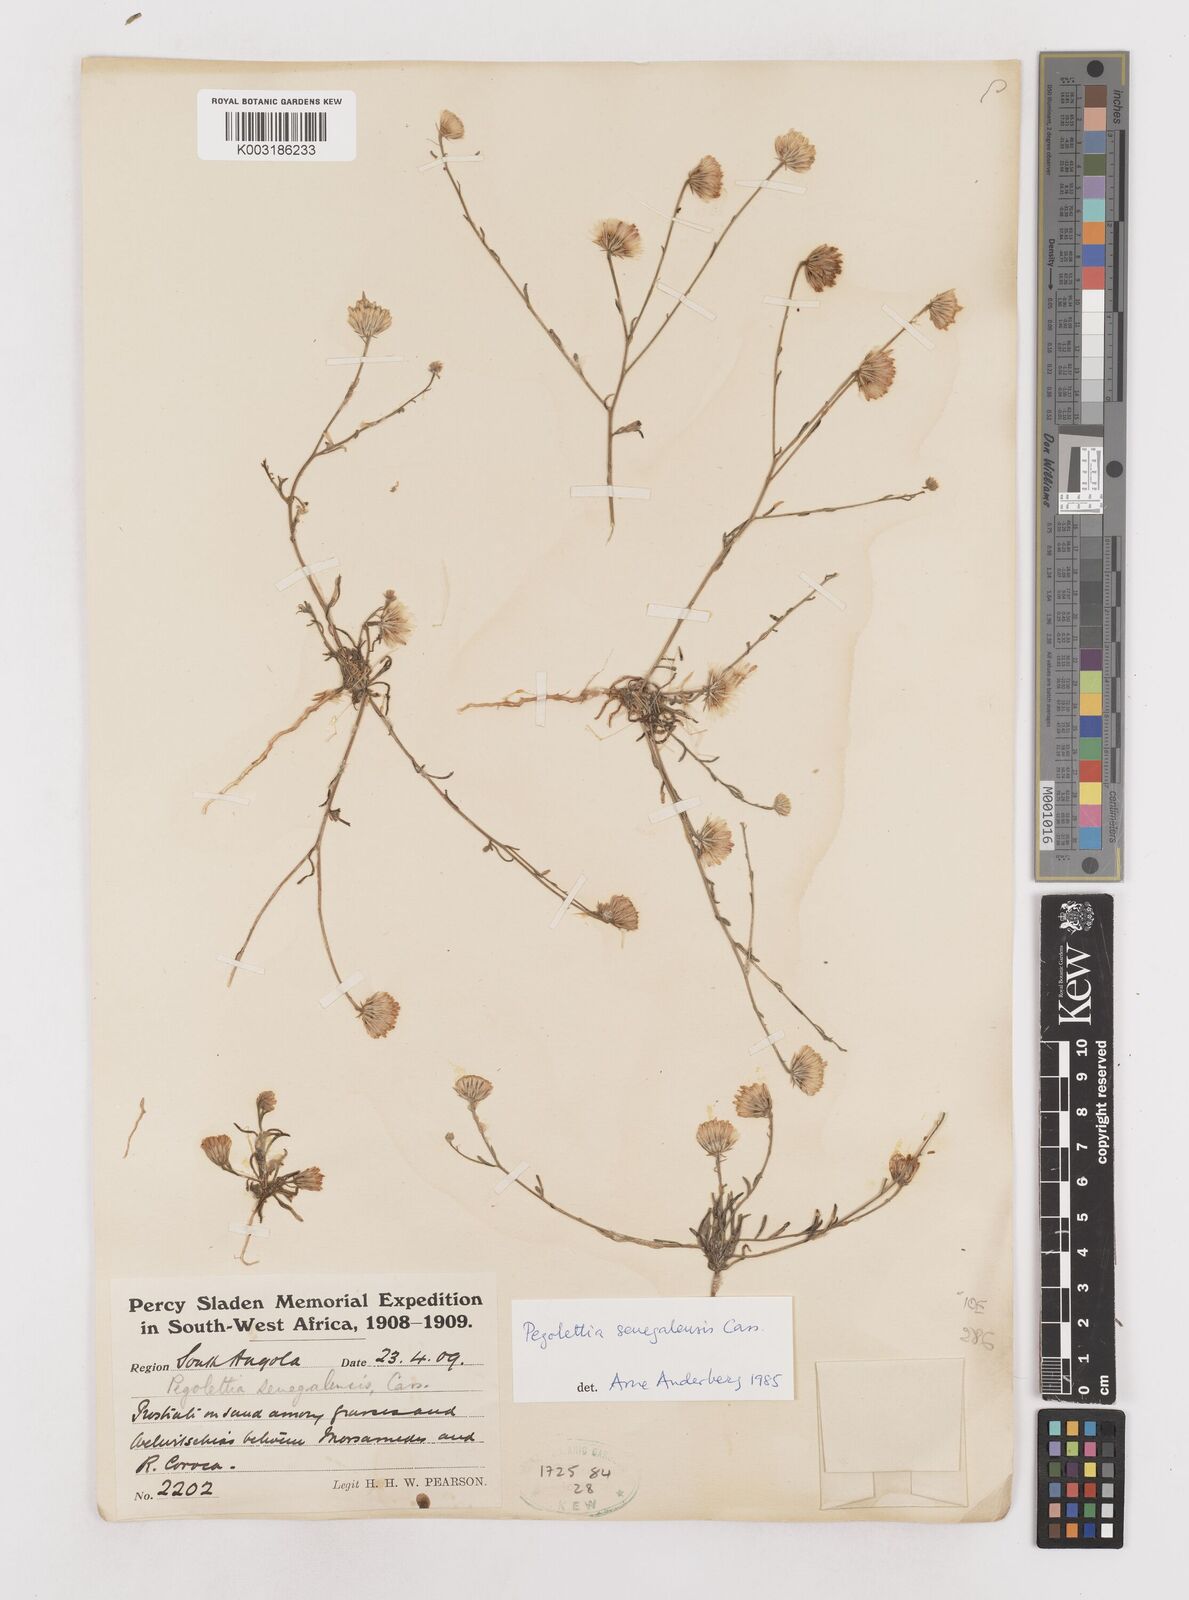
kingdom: Plantae
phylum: Tracheophyta
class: Magnoliopsida
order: Asterales
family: Asteraceae
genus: Pegolettia
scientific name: Pegolettia senegalensis
